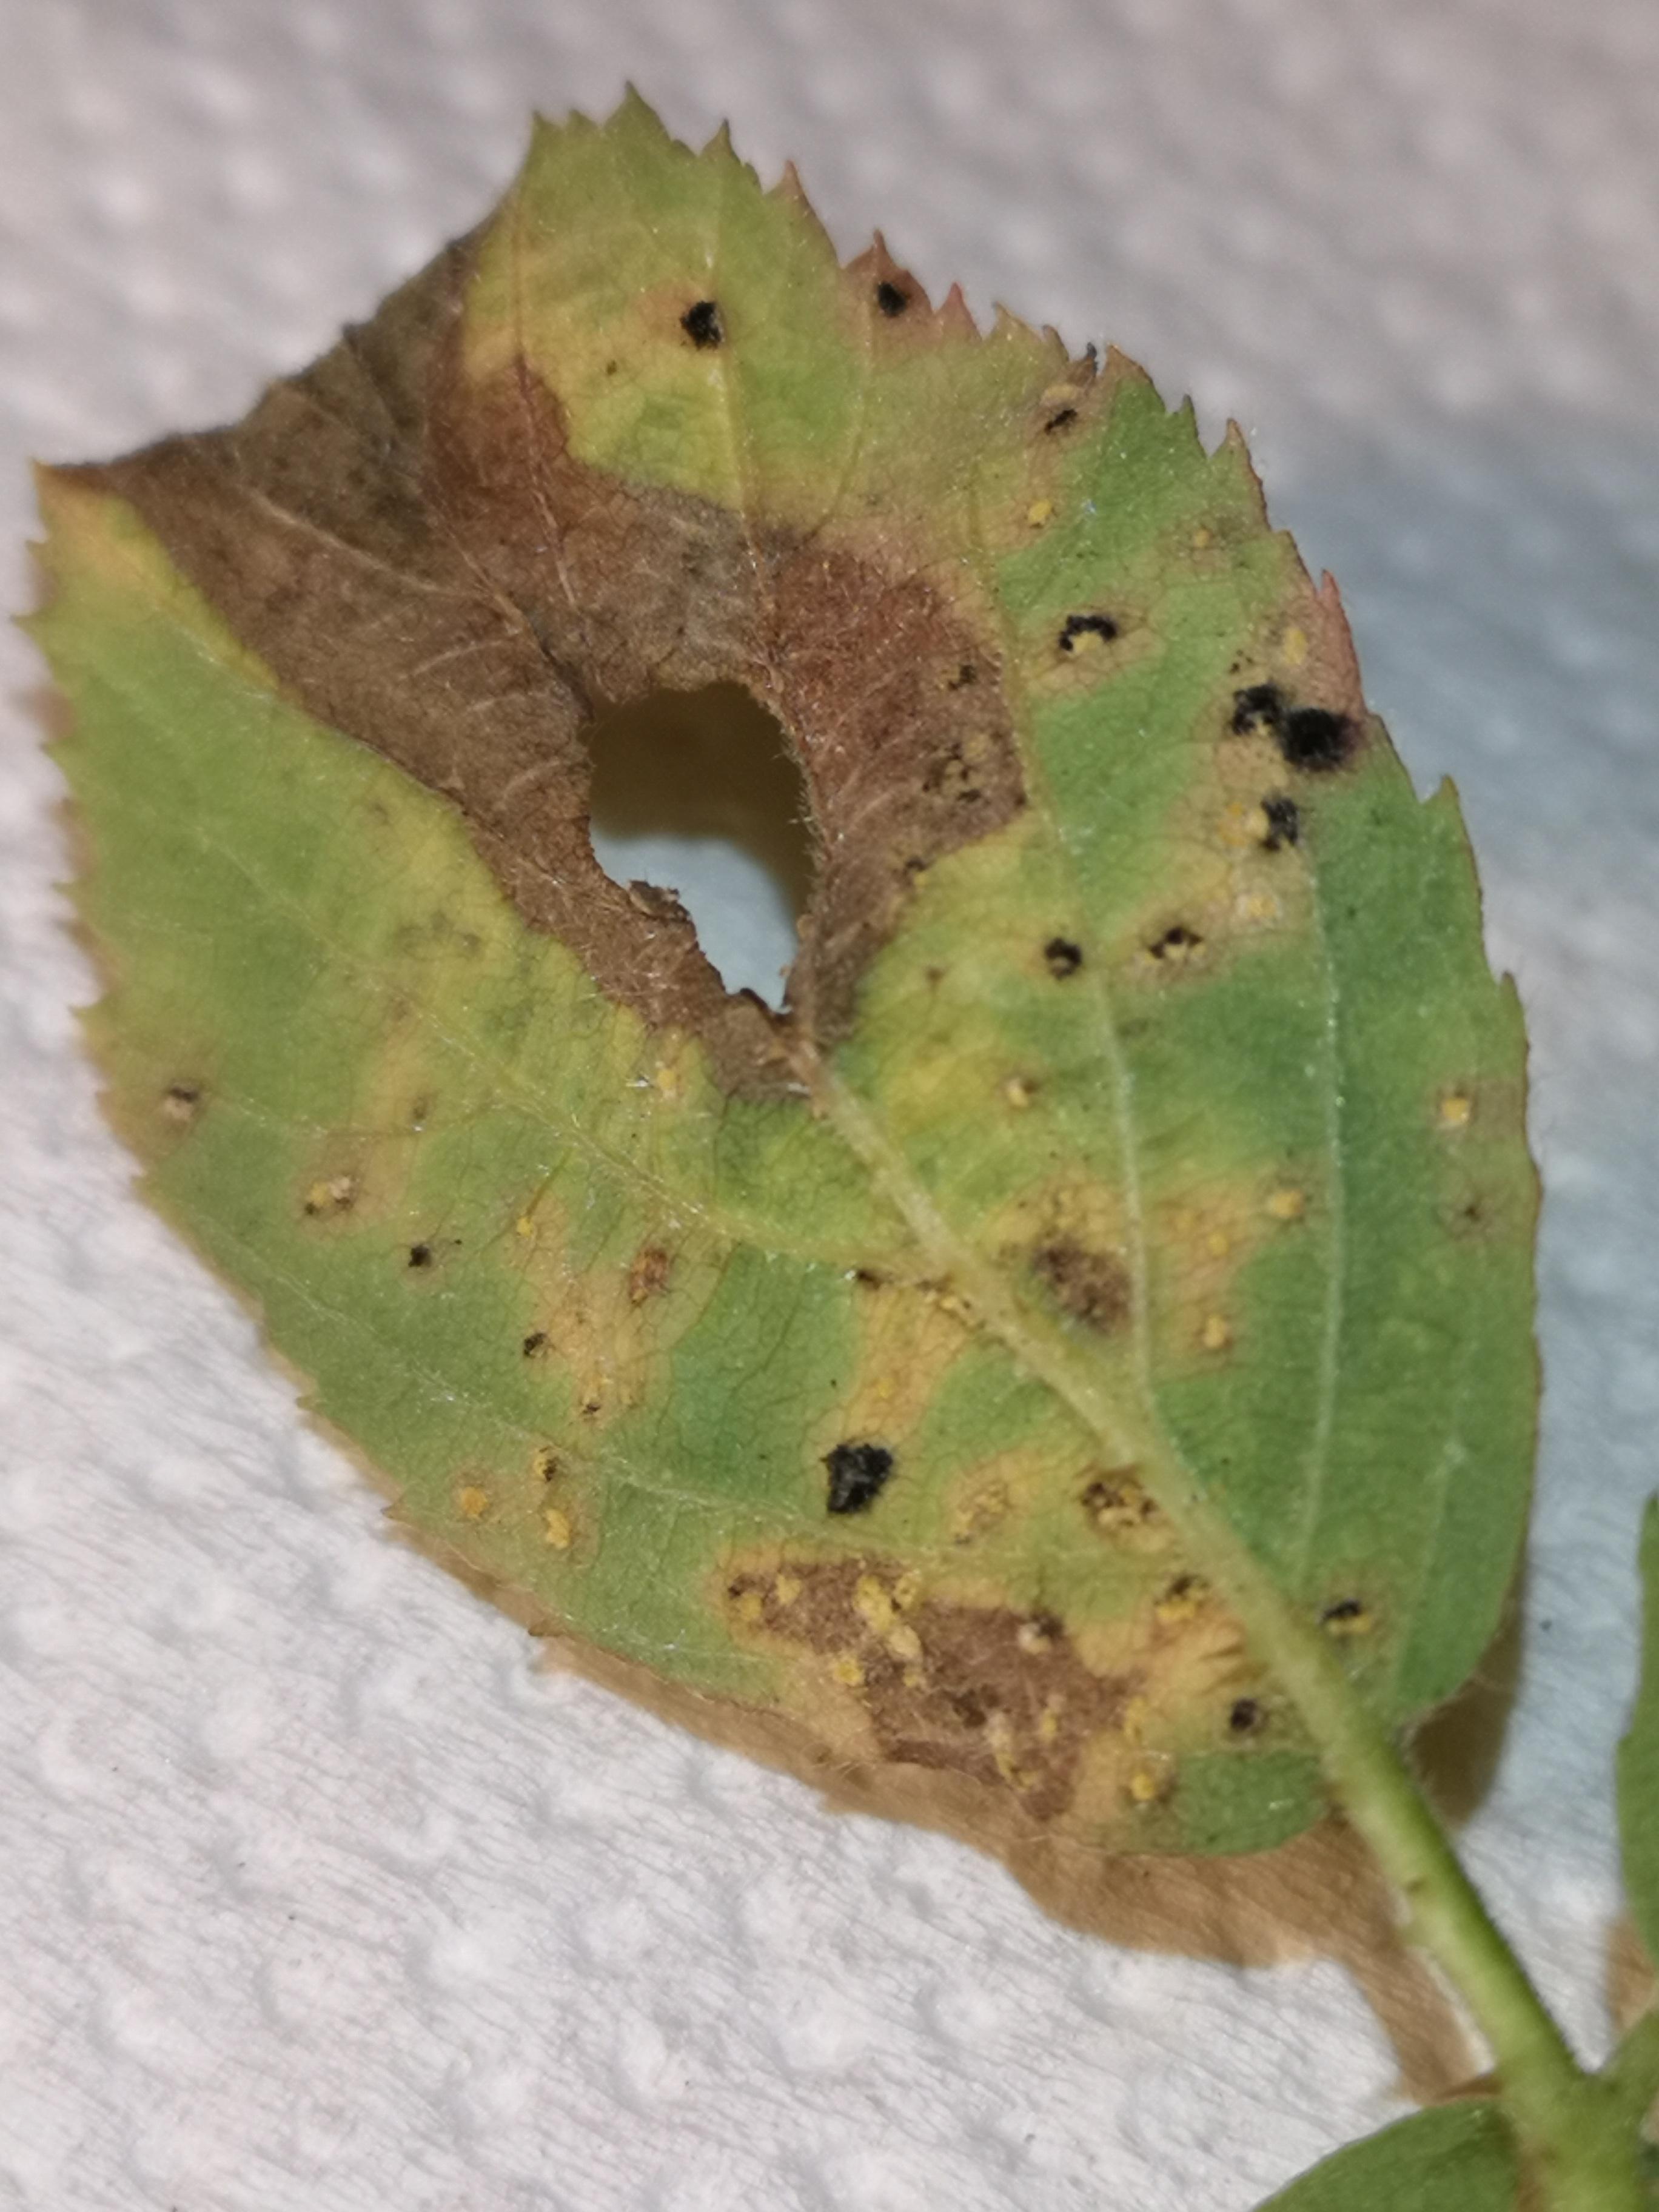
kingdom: Fungi
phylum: Basidiomycota
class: Pucciniomycetes
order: Pucciniales
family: Phragmidiaceae
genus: Phragmidium
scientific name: Phragmidium violaceum
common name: violet flercellerust
